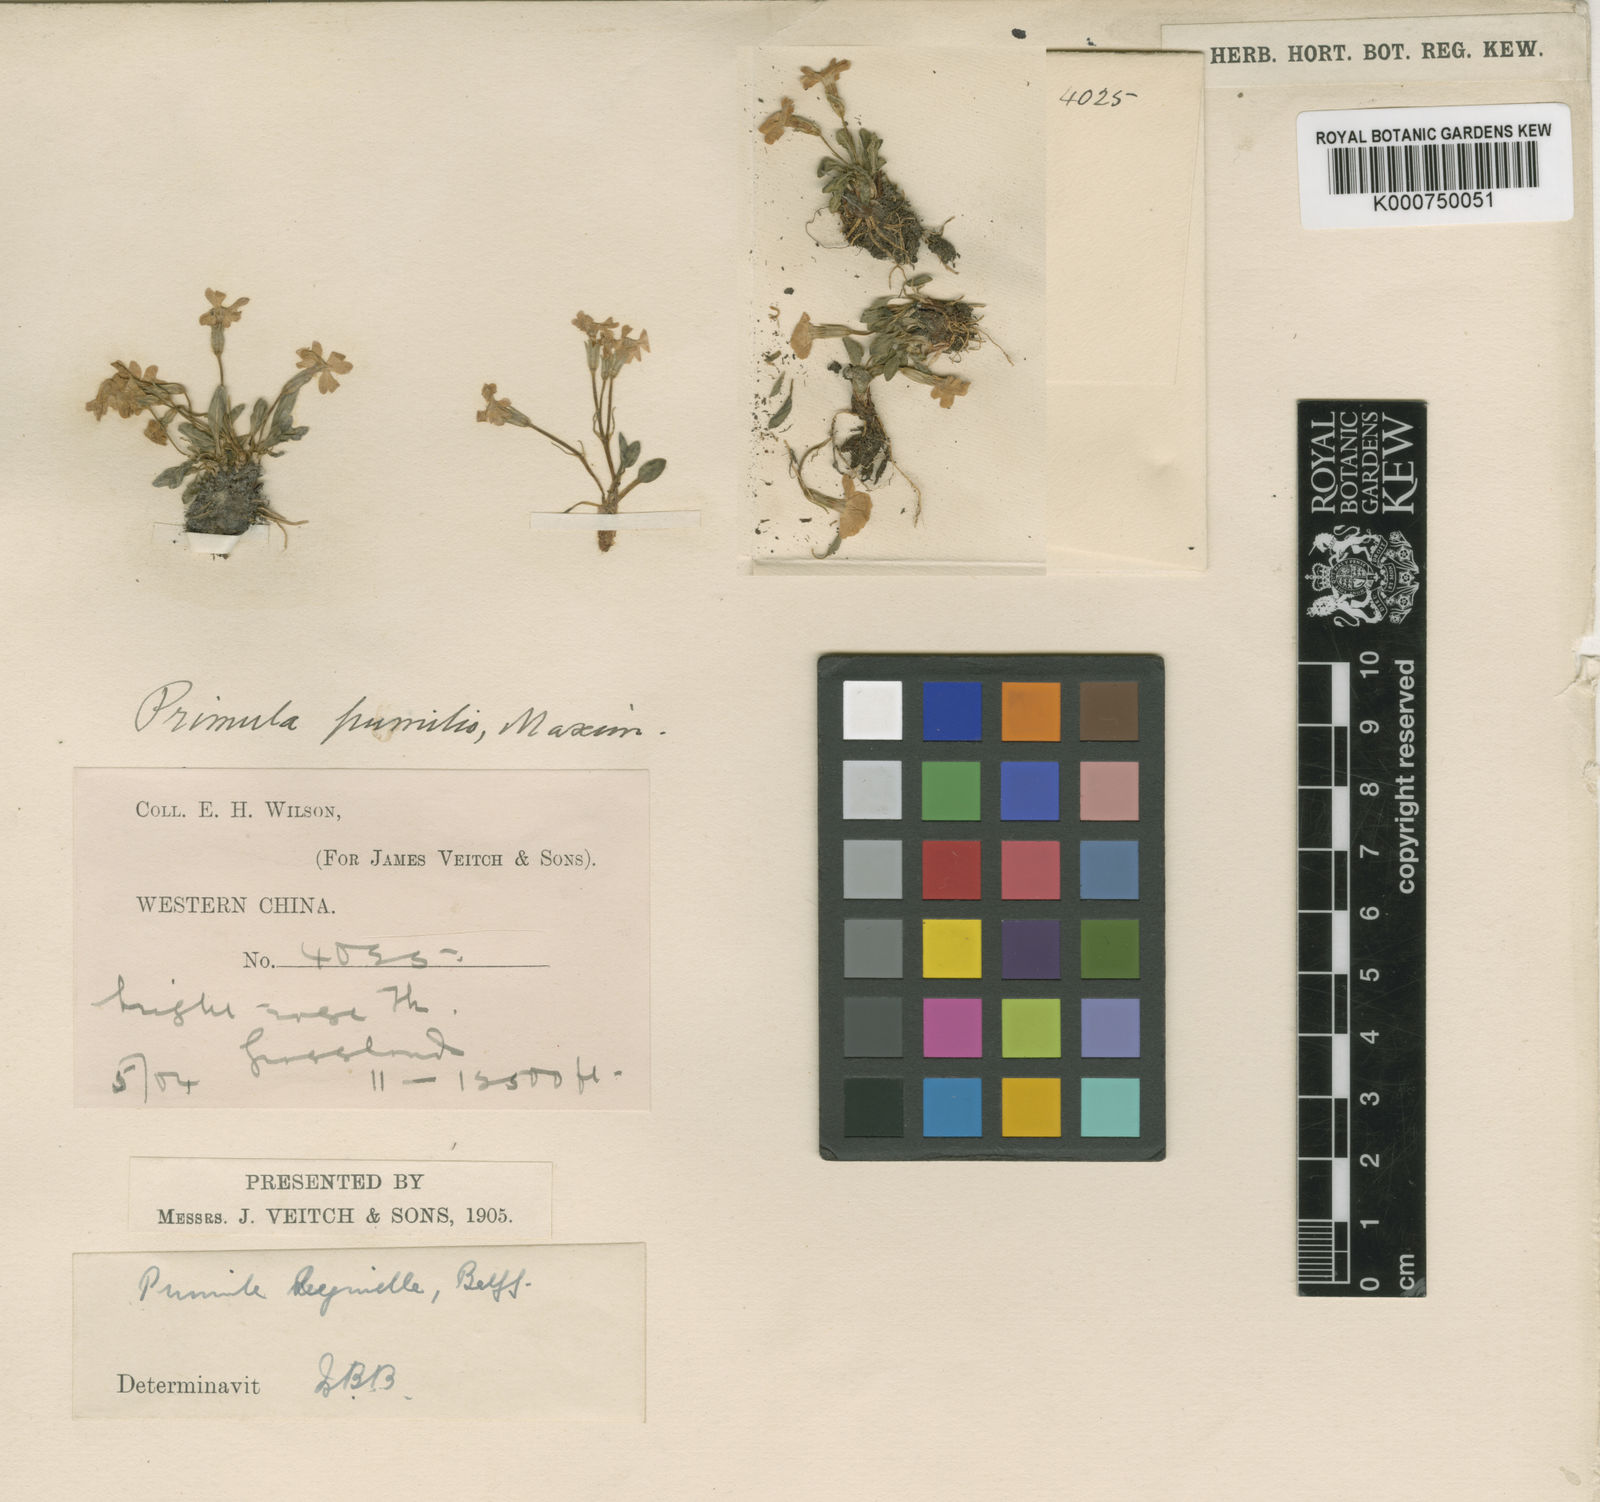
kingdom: Plantae
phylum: Tracheophyta
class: Magnoliopsida
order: Ericales
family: Primulaceae
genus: Primula
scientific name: Primula fasciculata
